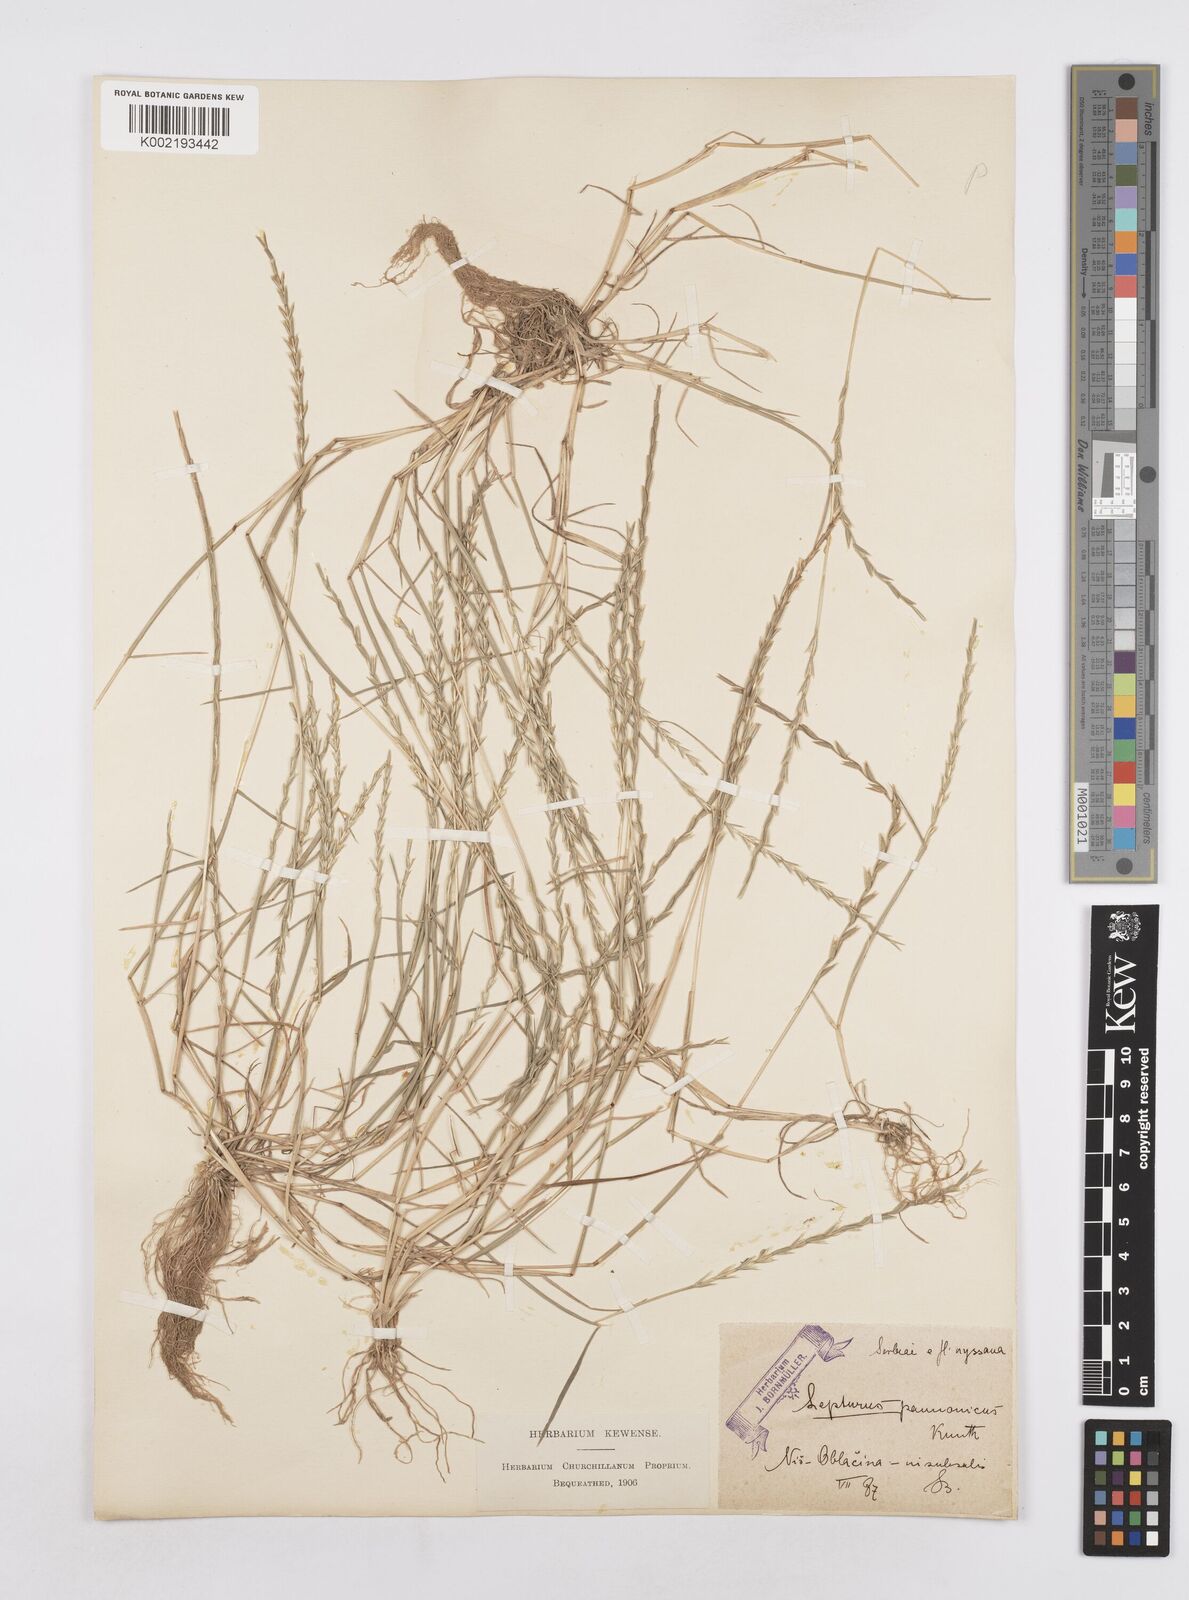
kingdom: Plantae
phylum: Tracheophyta
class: Liliopsida
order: Poales
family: Poaceae
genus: Pholiurus
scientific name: Pholiurus pannonicus
